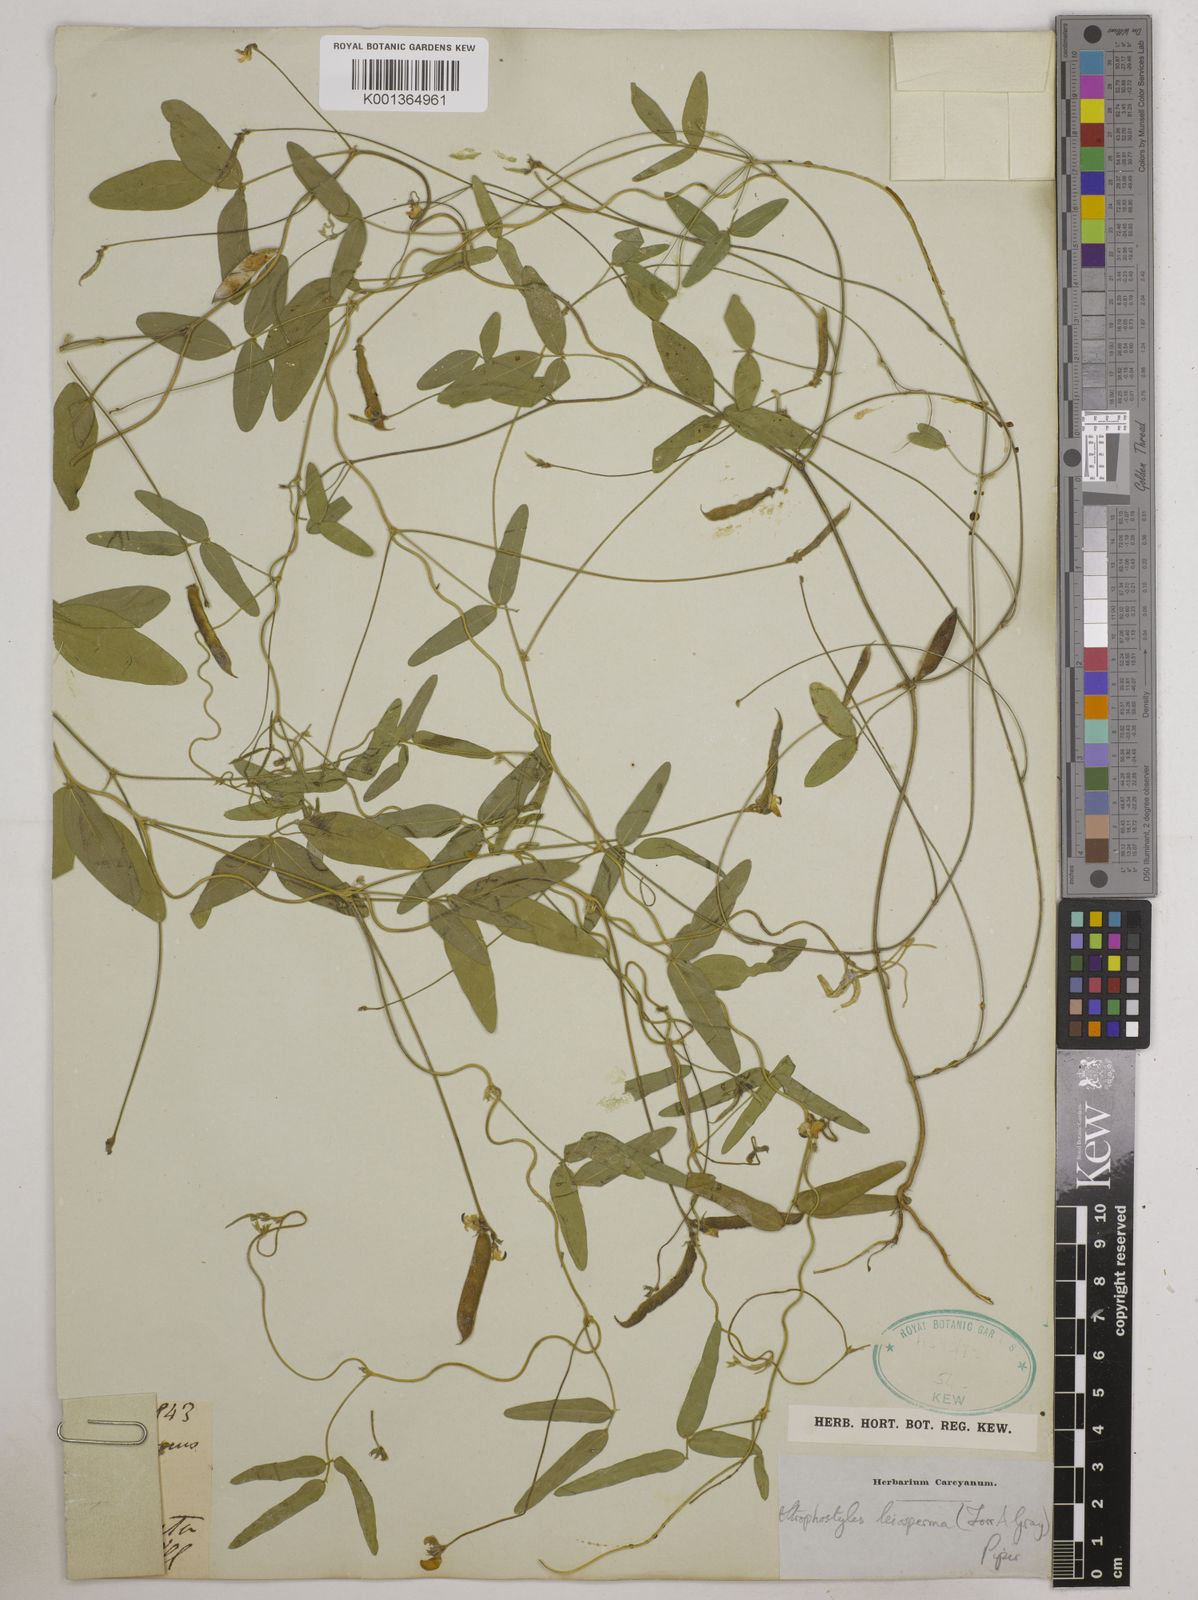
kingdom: Plantae
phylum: Tracheophyta
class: Magnoliopsida
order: Fabales
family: Fabaceae
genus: Strophostyles
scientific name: Strophostyles leiosperma
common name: Smooth-seed wild bean
